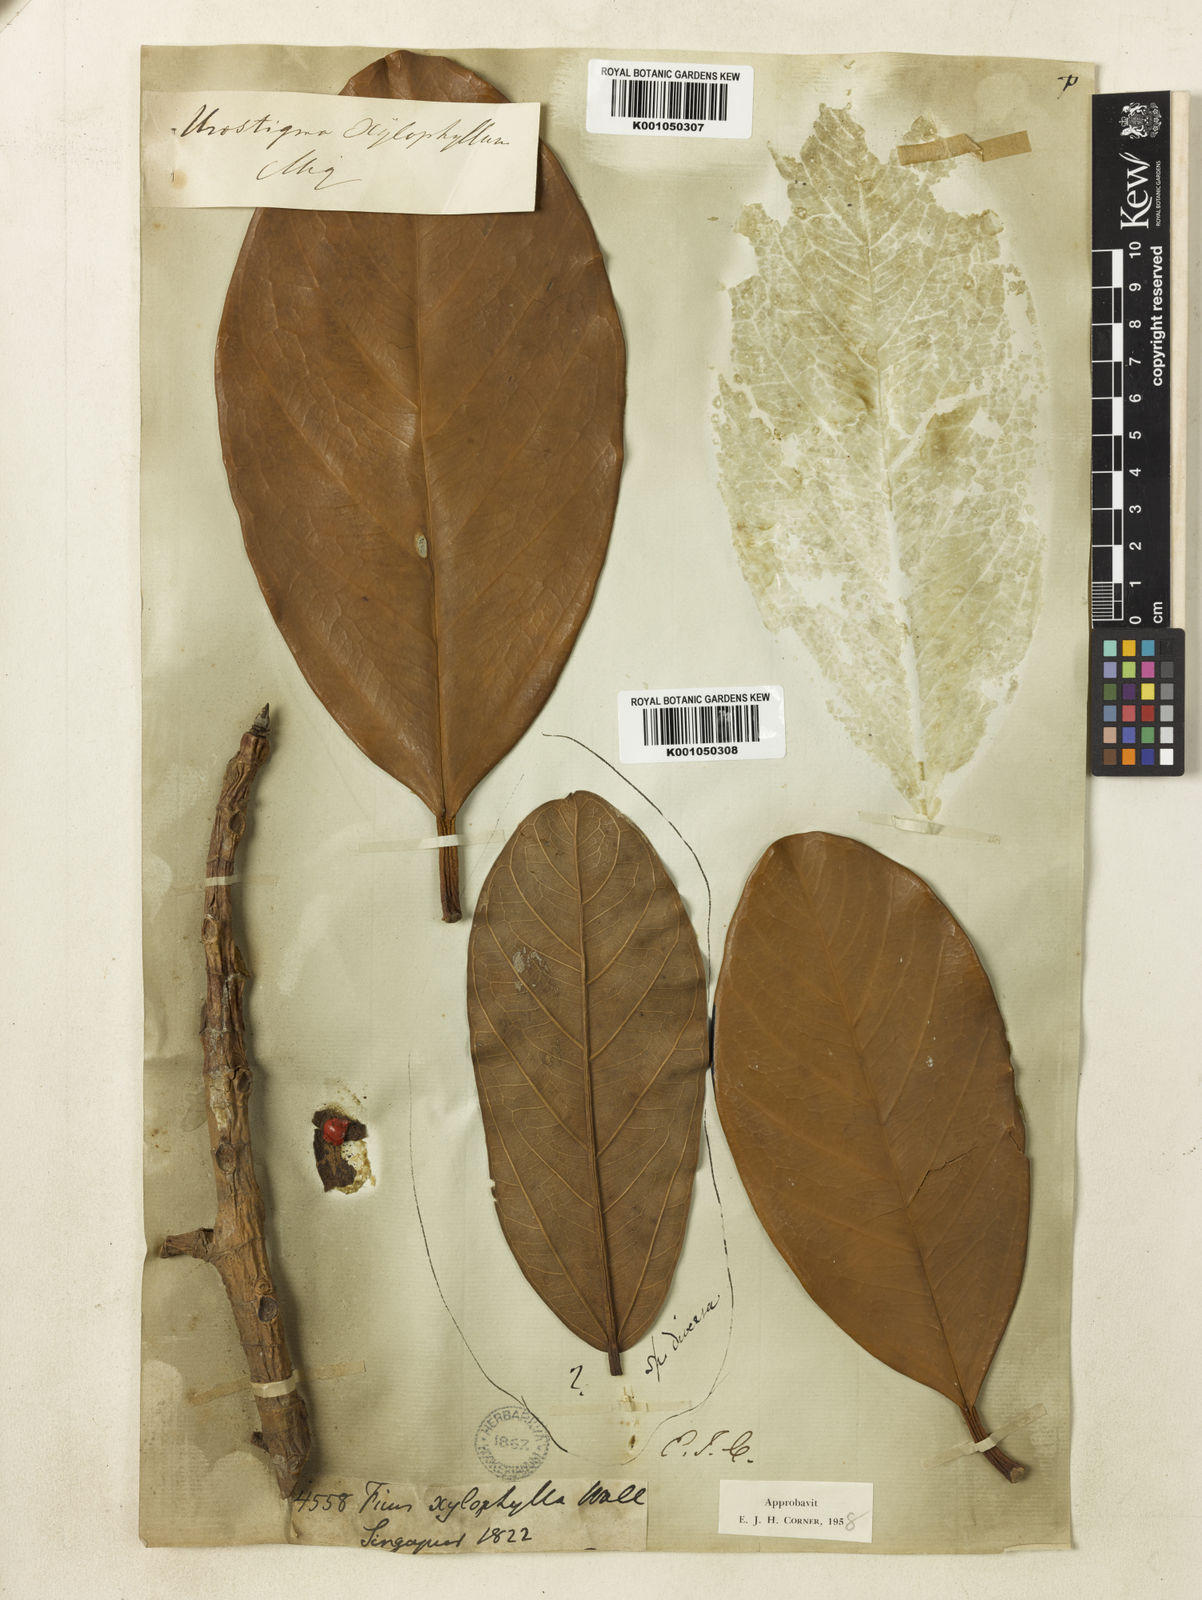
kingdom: Plantae
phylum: Tracheophyta
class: Magnoliopsida
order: Rosales
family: Moraceae
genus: Ficus
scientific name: Ficus xylophylla
